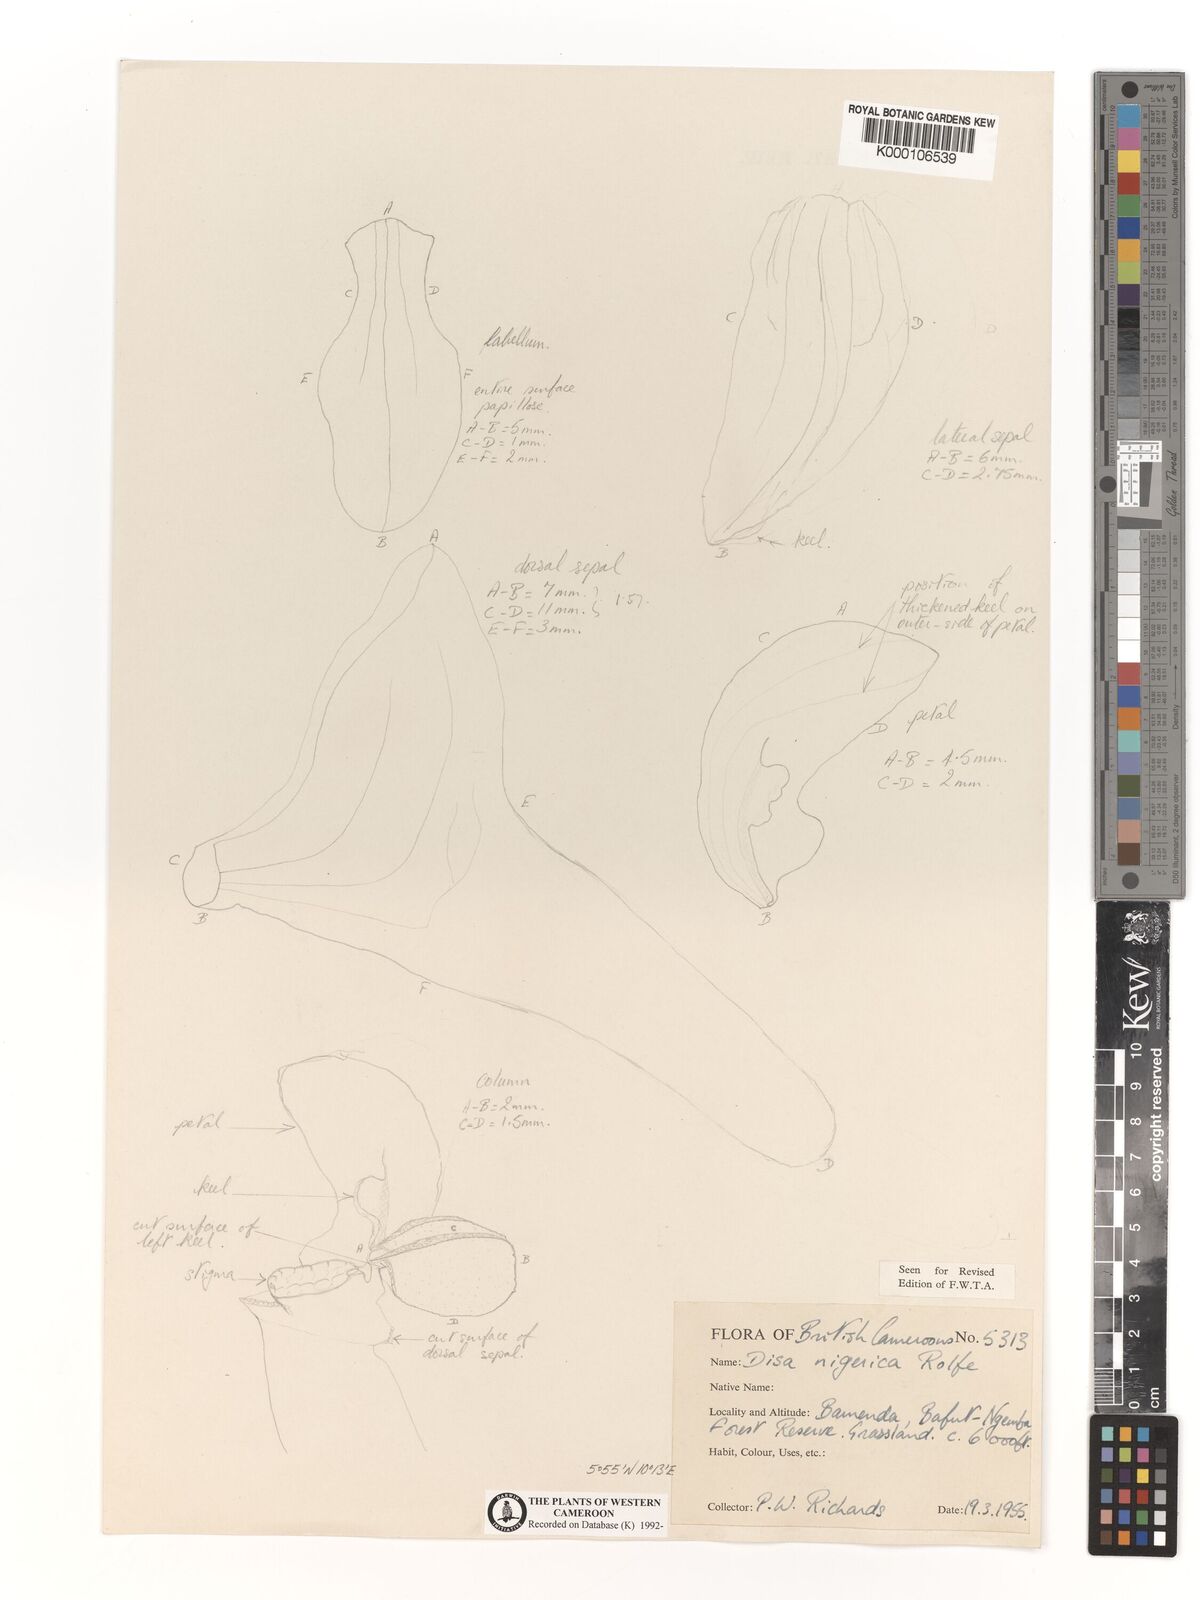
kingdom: Plantae
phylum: Tracheophyta
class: Liliopsida
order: Asparagales
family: Orchidaceae
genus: Disa
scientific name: Disa nigerica
